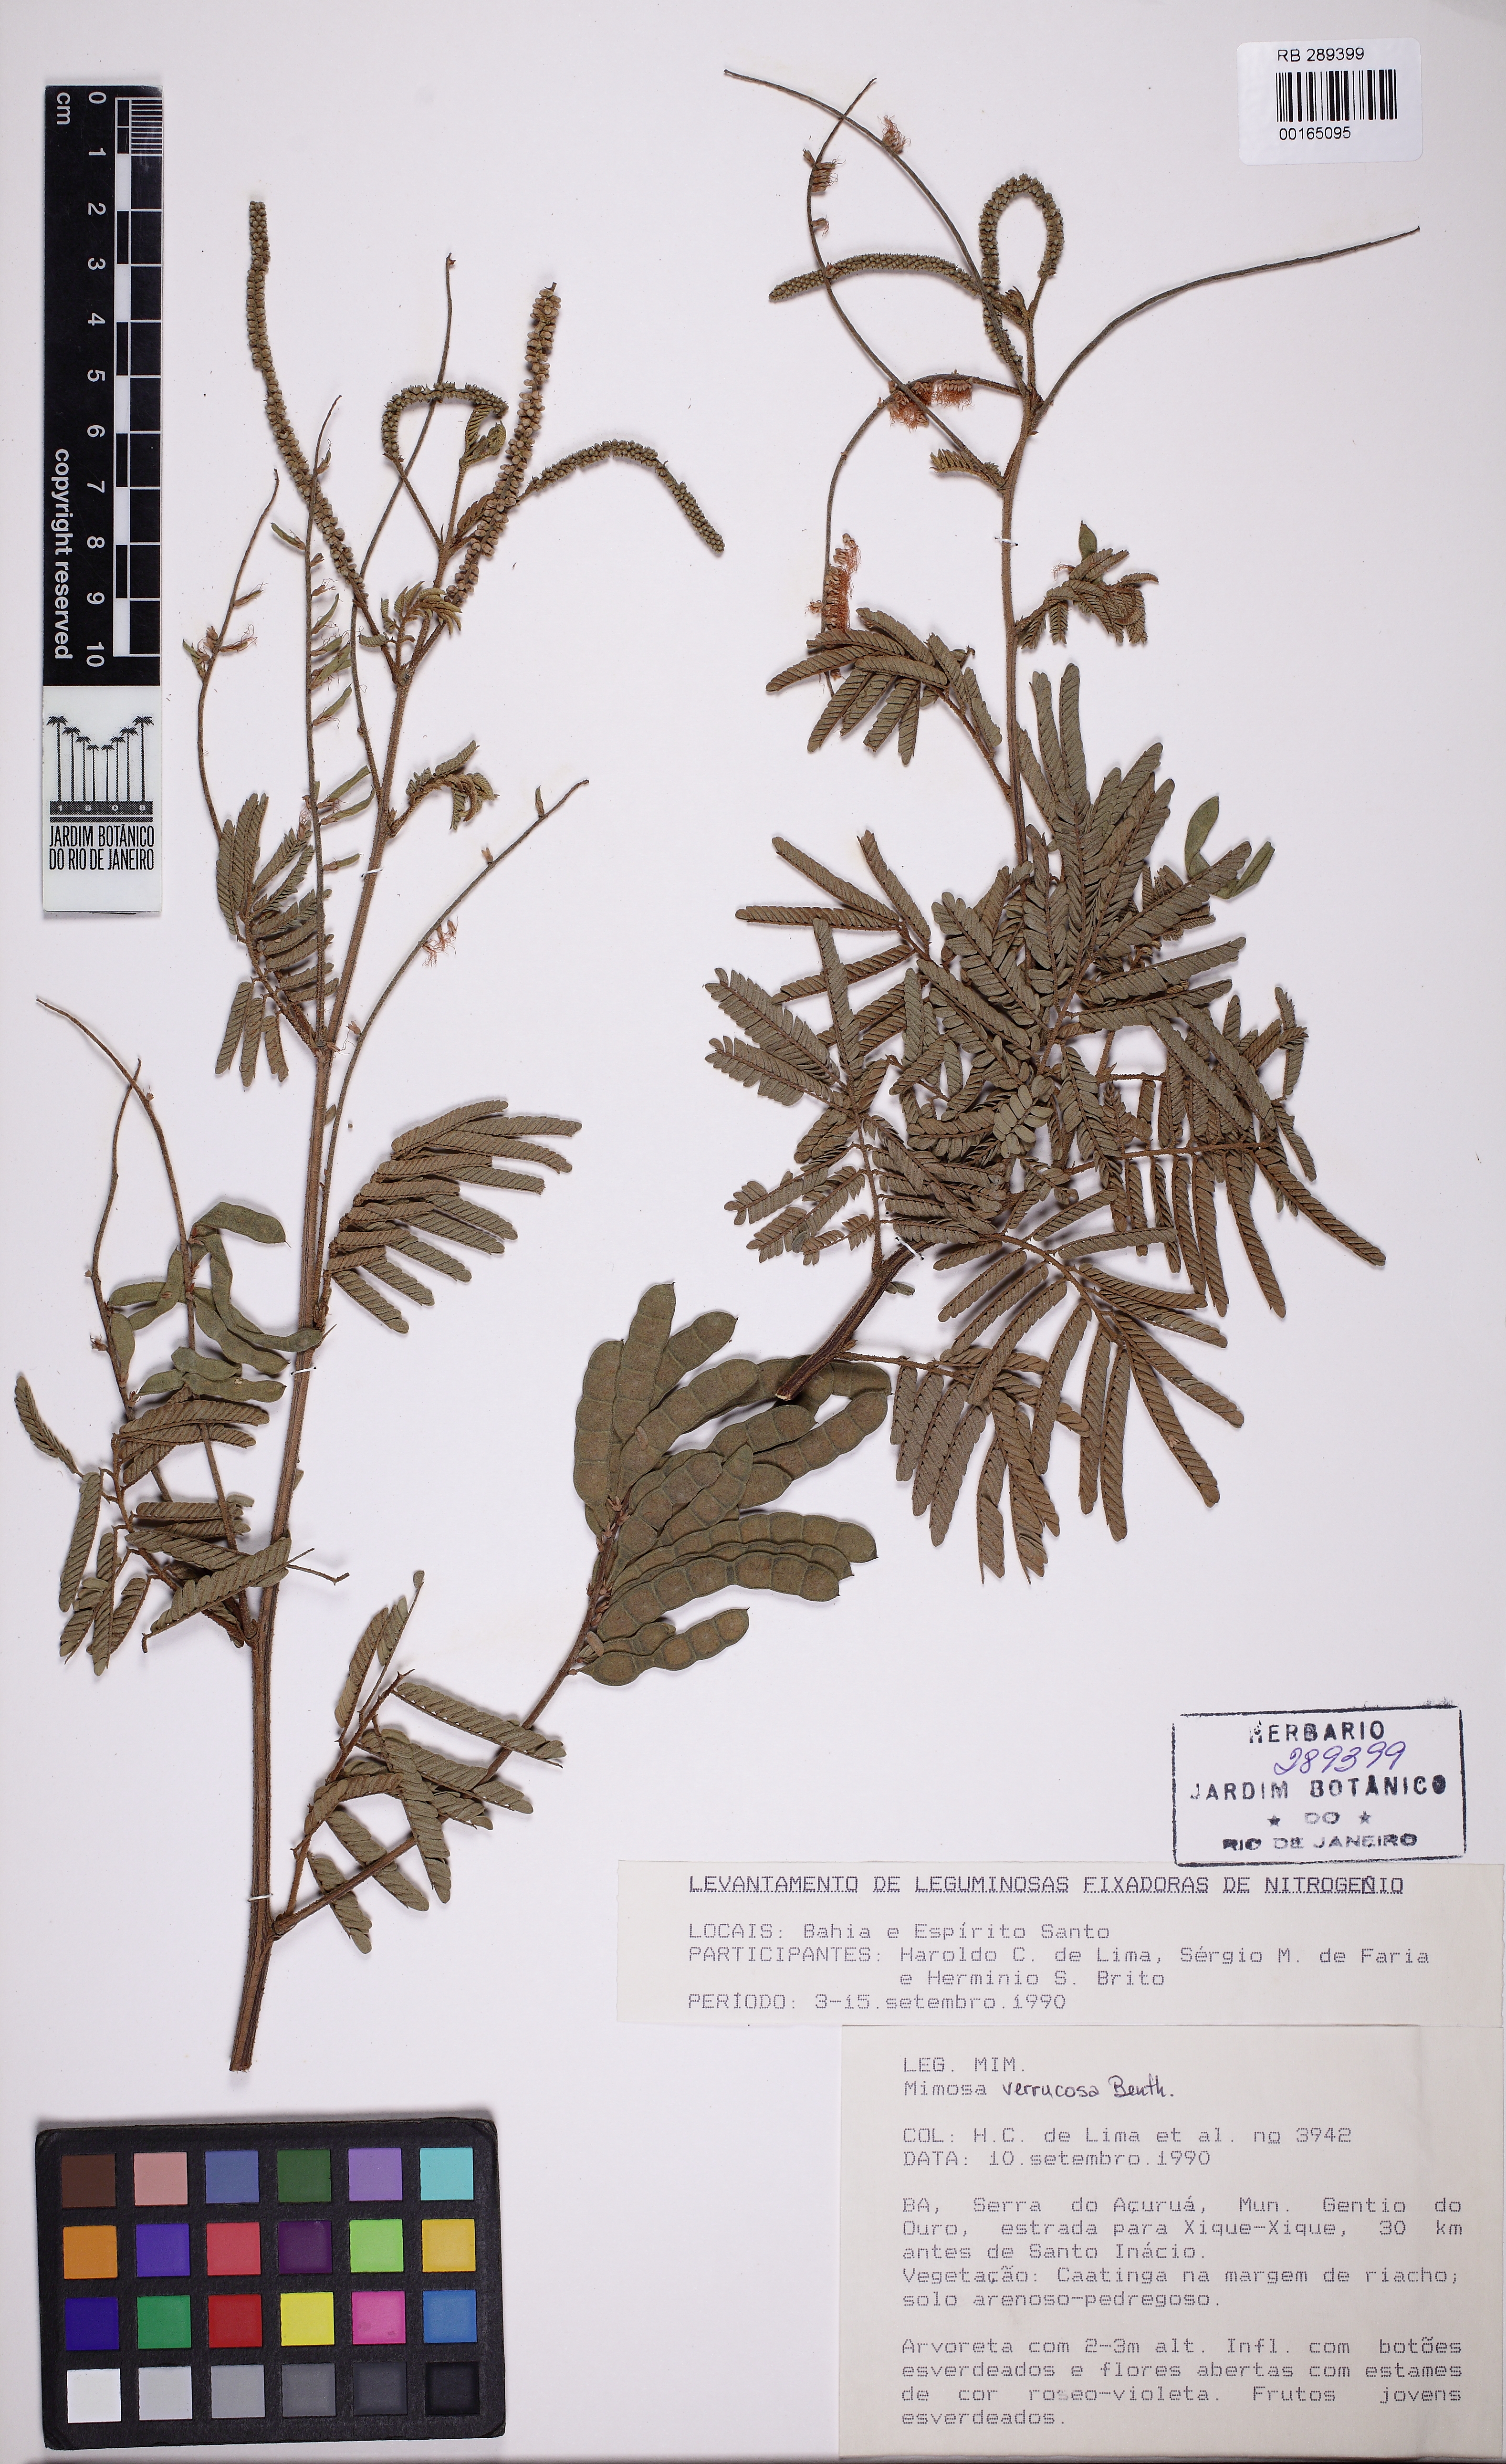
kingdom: Plantae
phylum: Tracheophyta
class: Magnoliopsida
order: Fabales
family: Fabaceae
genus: Mimosa
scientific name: Mimosa verrucosa
